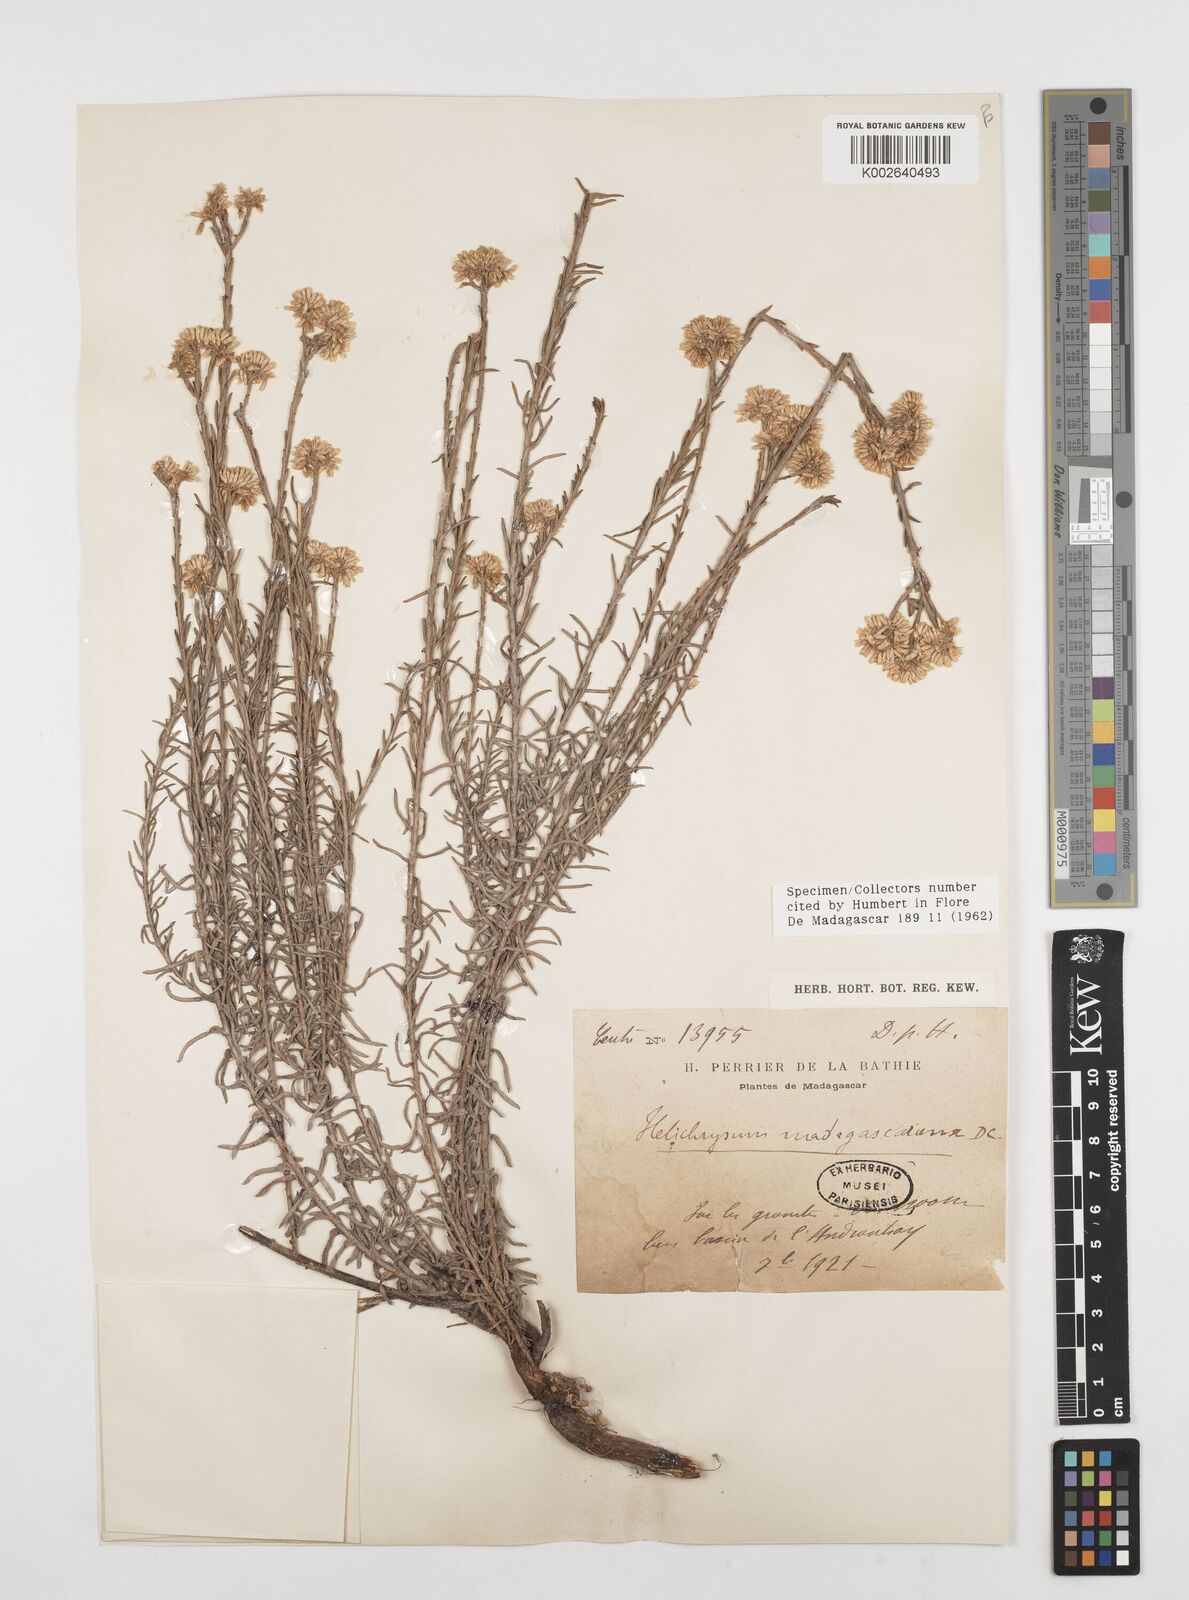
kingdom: Plantae
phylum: Tracheophyta
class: Magnoliopsida
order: Asterales
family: Asteraceae
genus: Helichrysum
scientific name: Helichrysum madagascariense
